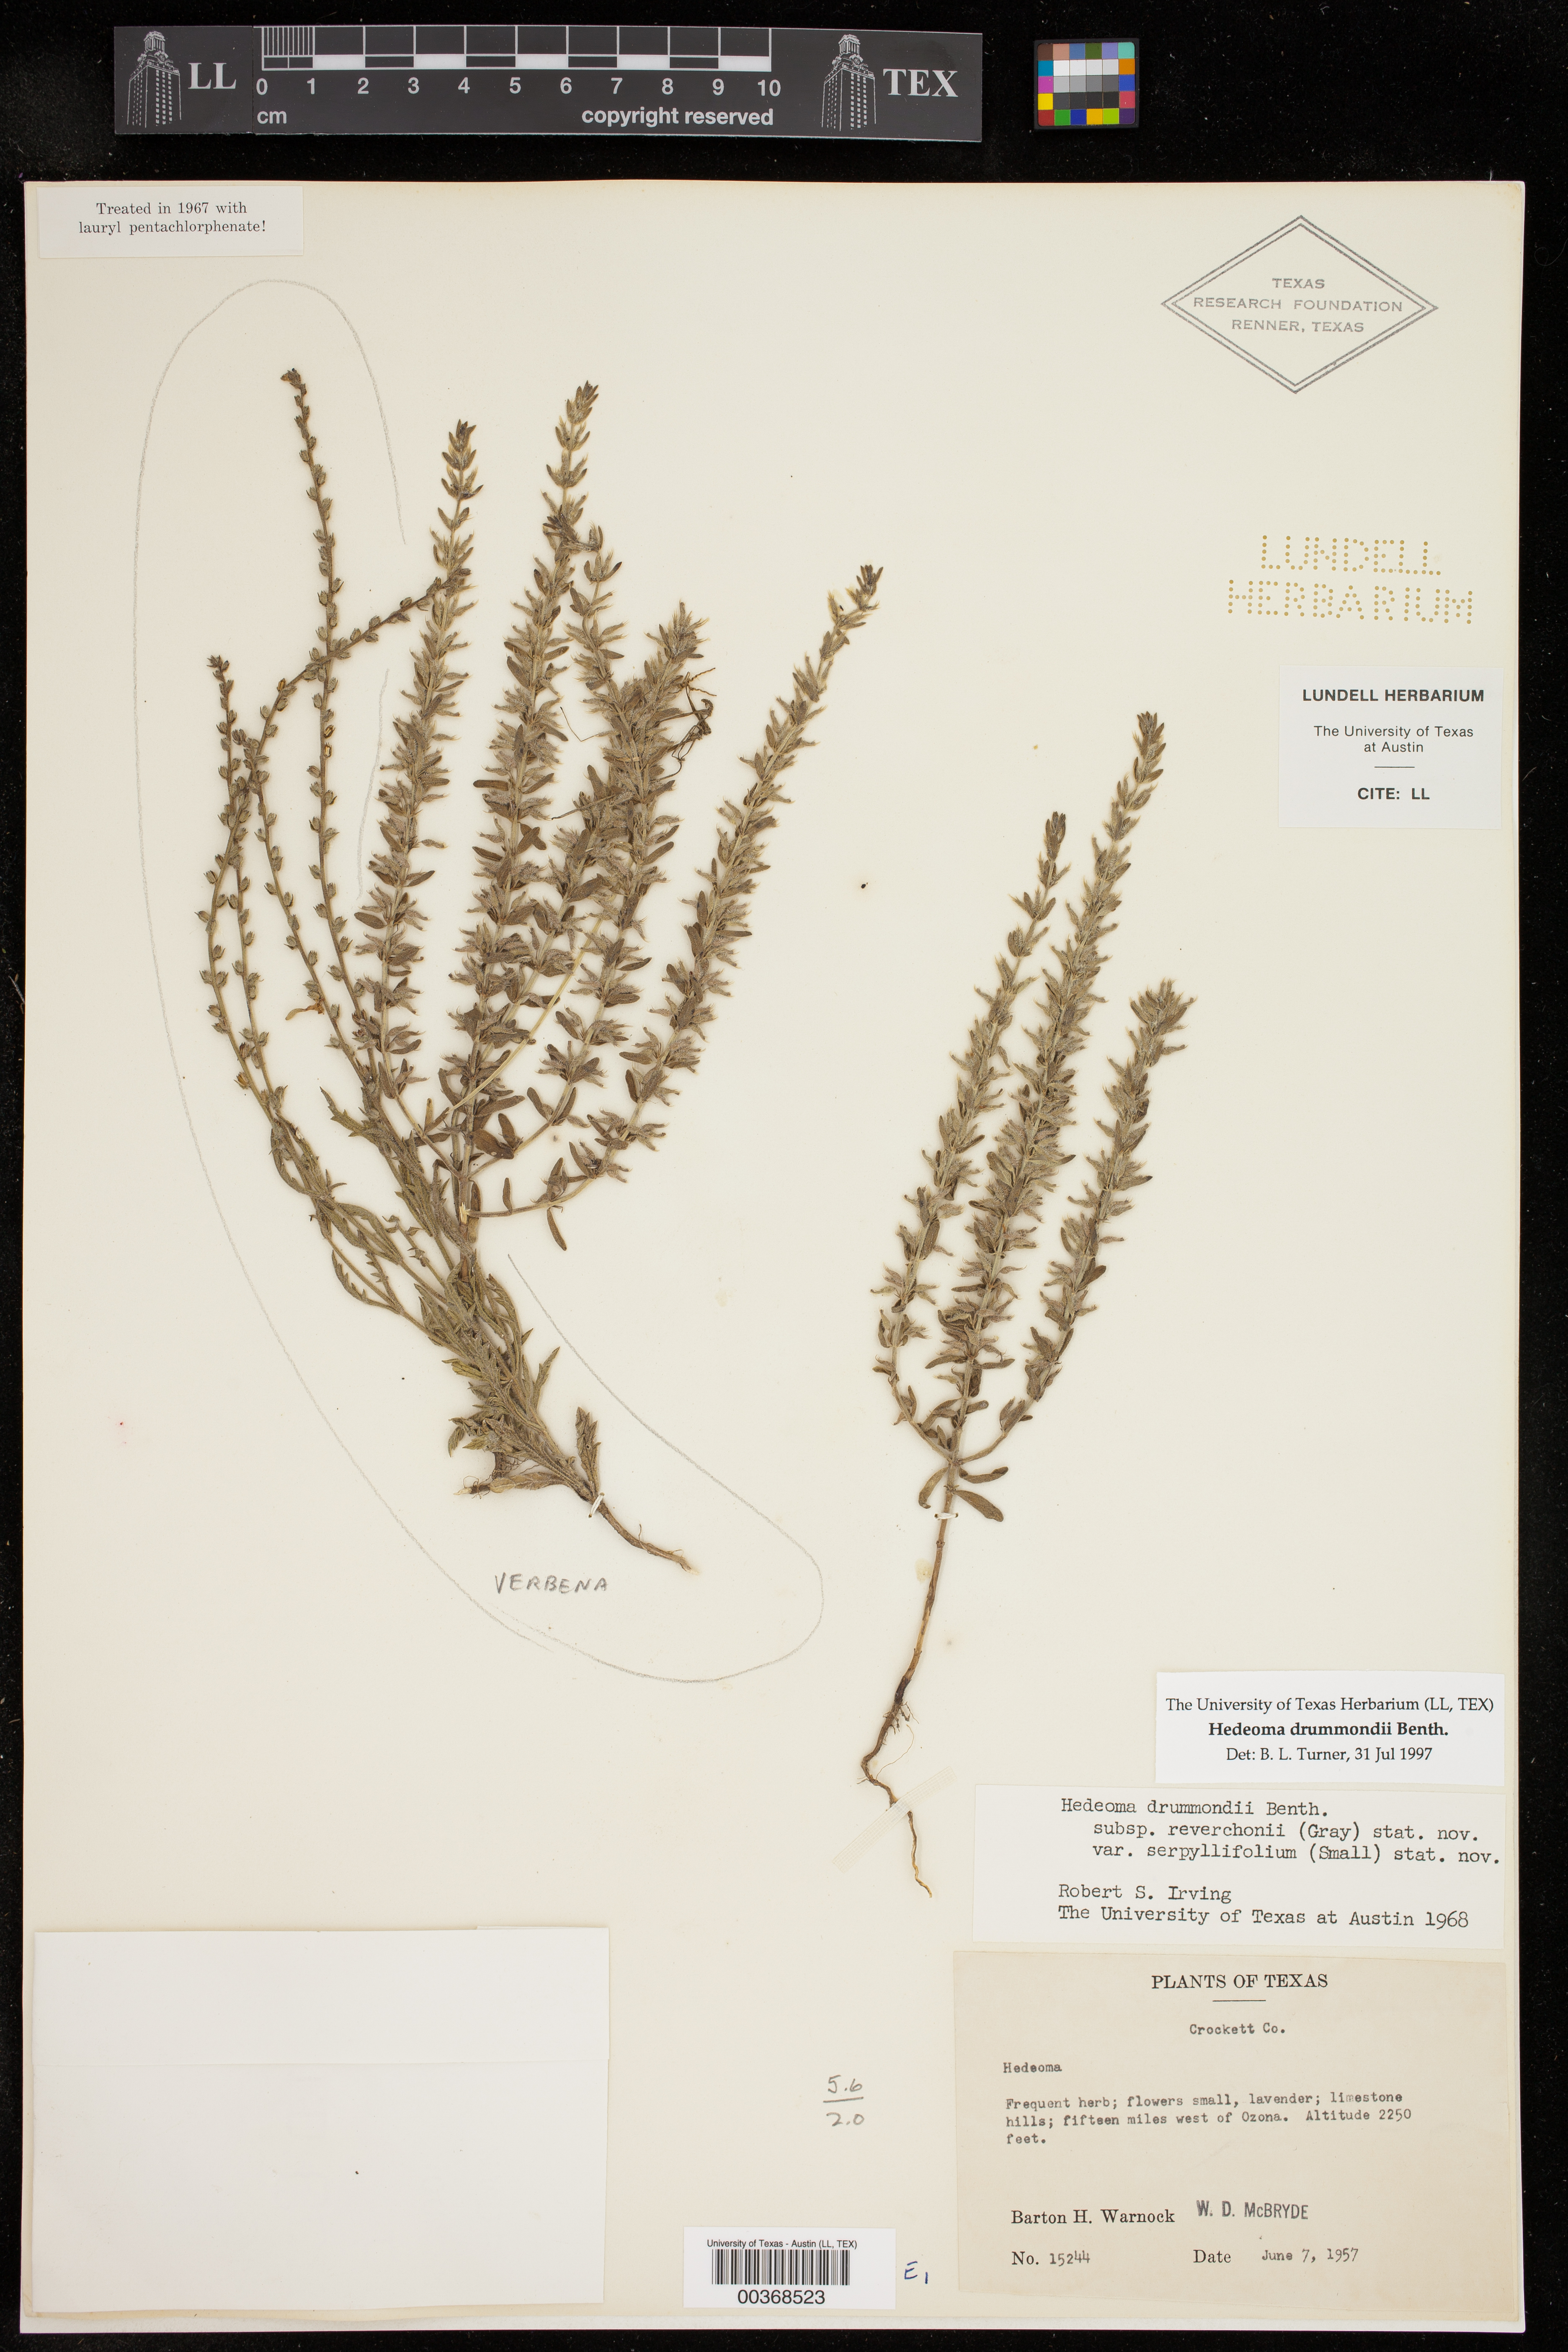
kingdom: Plantae
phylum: Tracheophyta
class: Magnoliopsida
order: Lamiales
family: Lamiaceae
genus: Hedeoma
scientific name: Hedeoma drummondii
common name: New mexico pennyroyal
